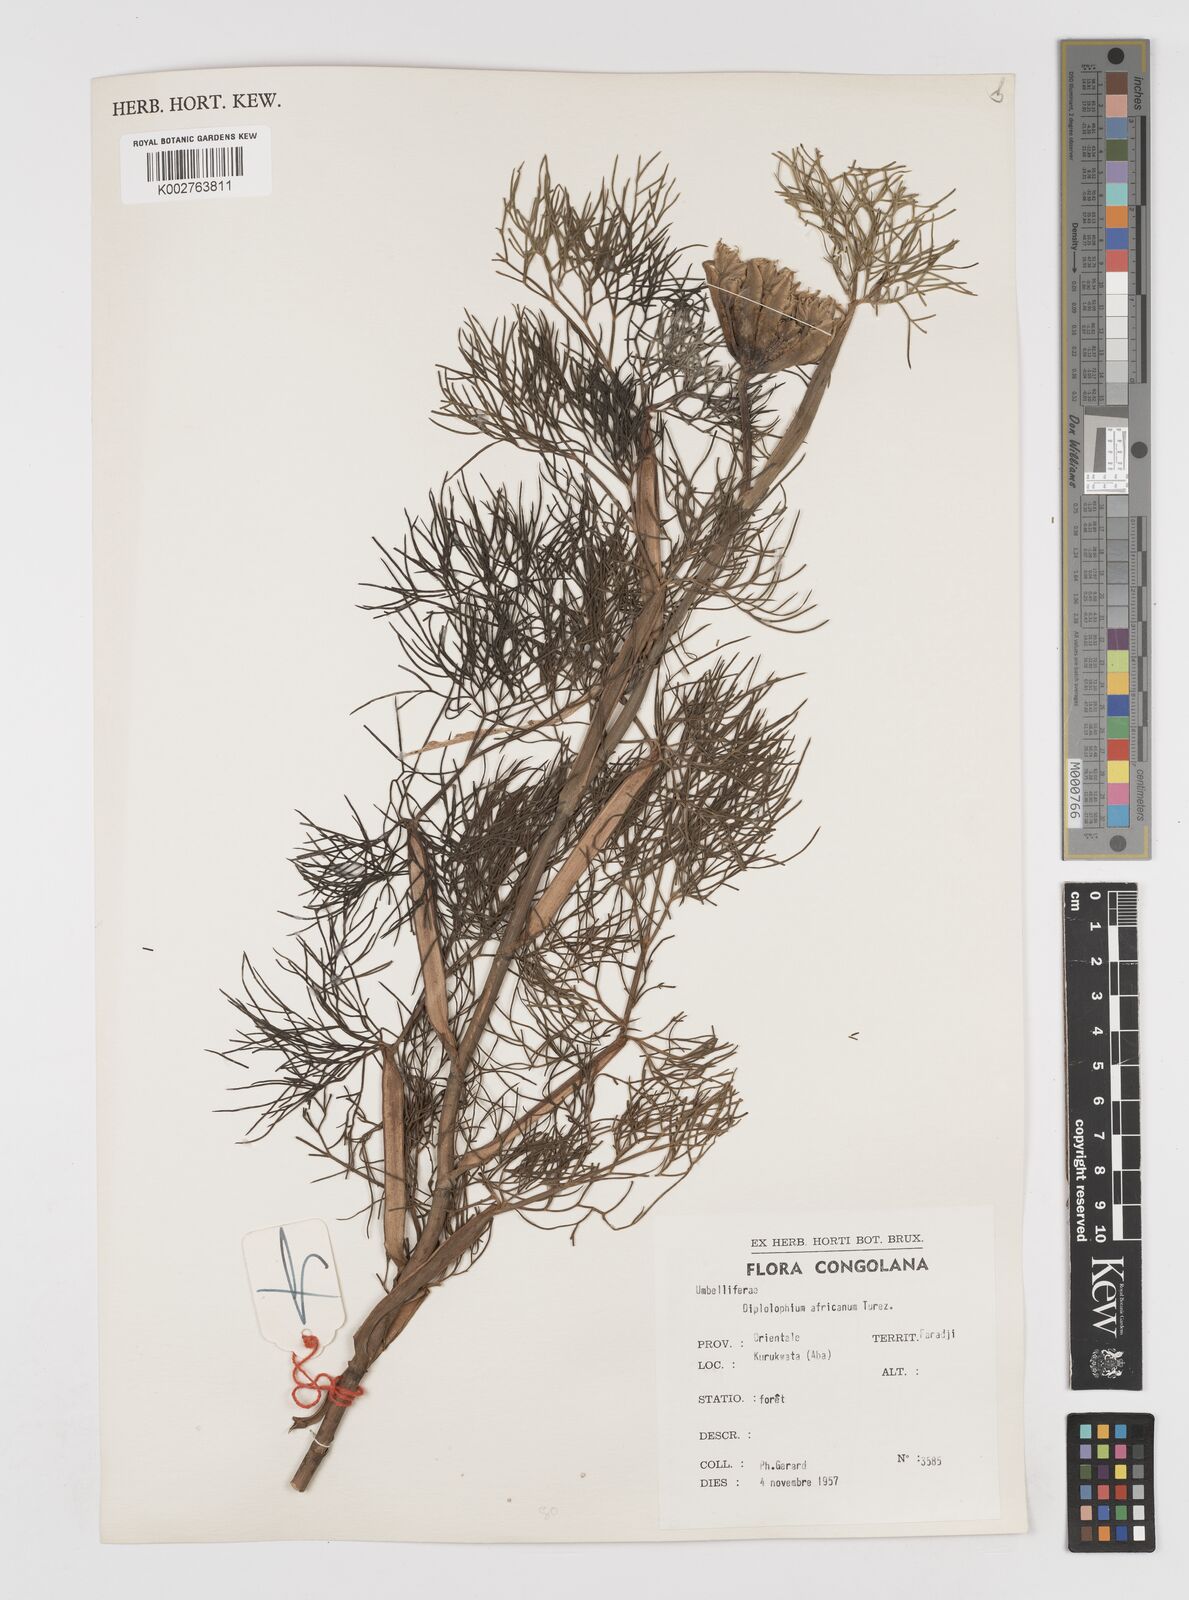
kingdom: Plantae
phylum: Tracheophyta
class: Magnoliopsida
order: Apiales
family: Apiaceae
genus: Diplolophium
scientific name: Diplolophium africanum
